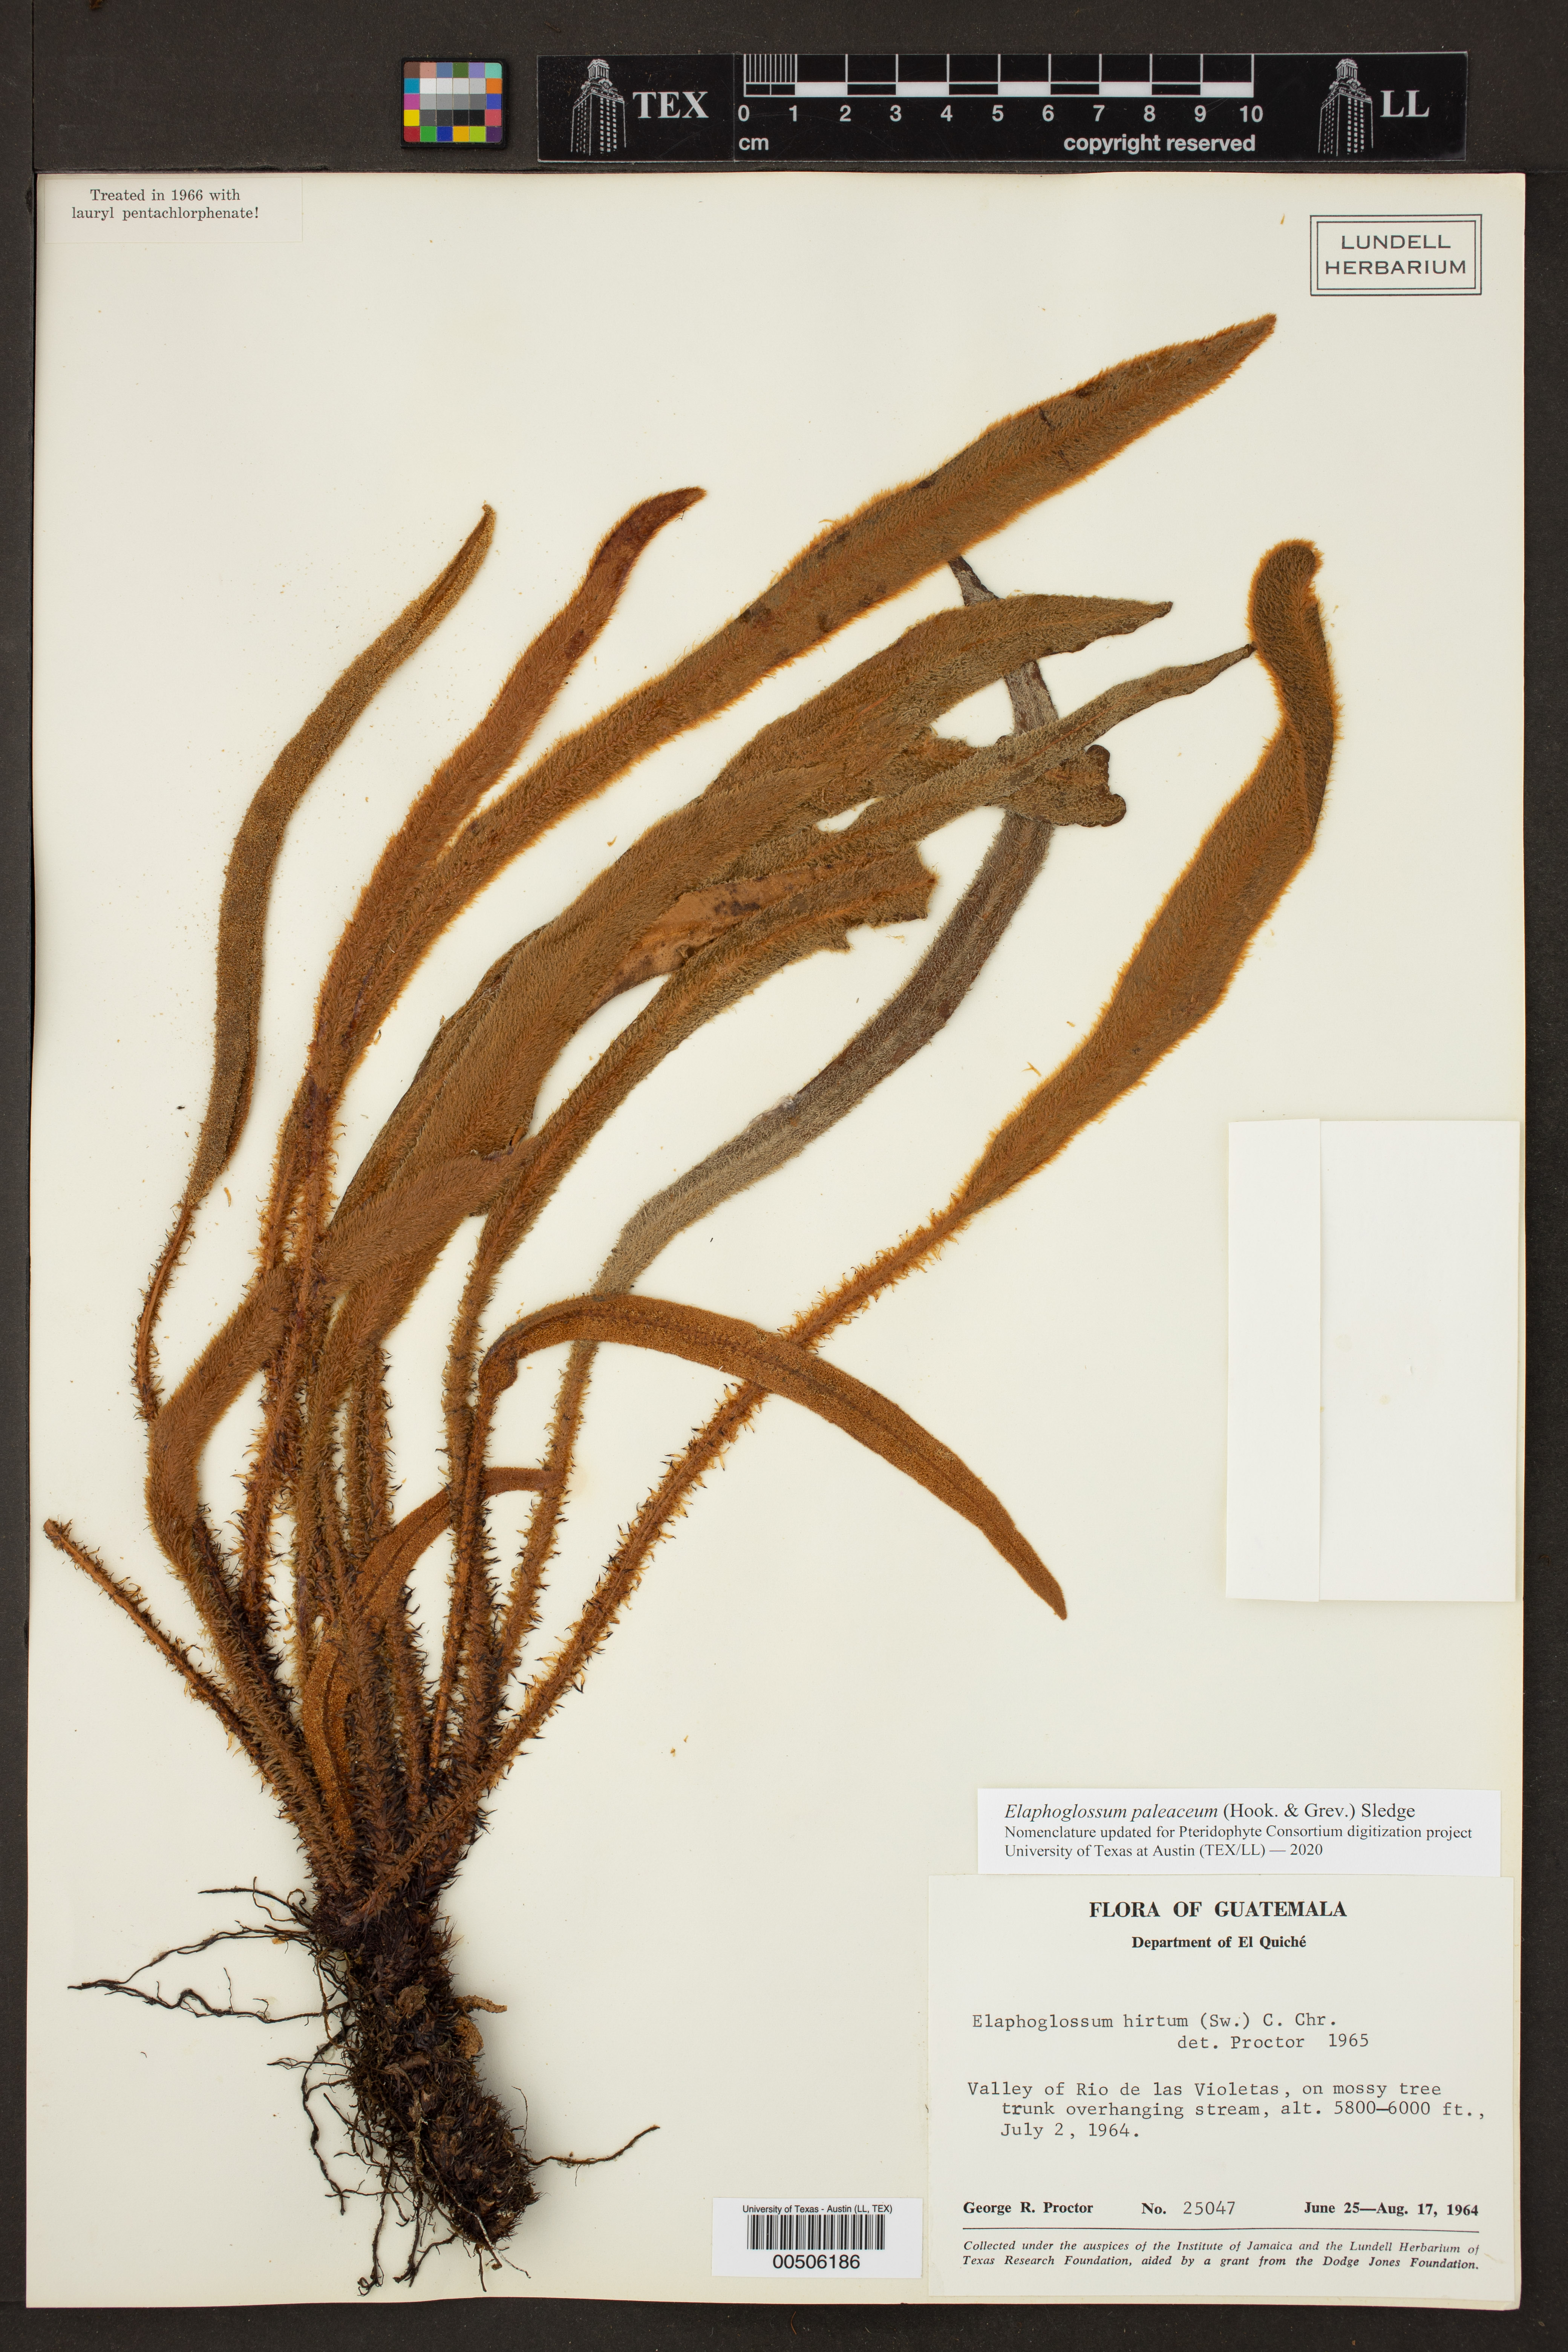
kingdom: Plantae
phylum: Tracheophyta
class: Polypodiopsida
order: Polypodiales
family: Dryopteridaceae
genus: Elaphoglossum
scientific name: Elaphoglossum paleaceum
